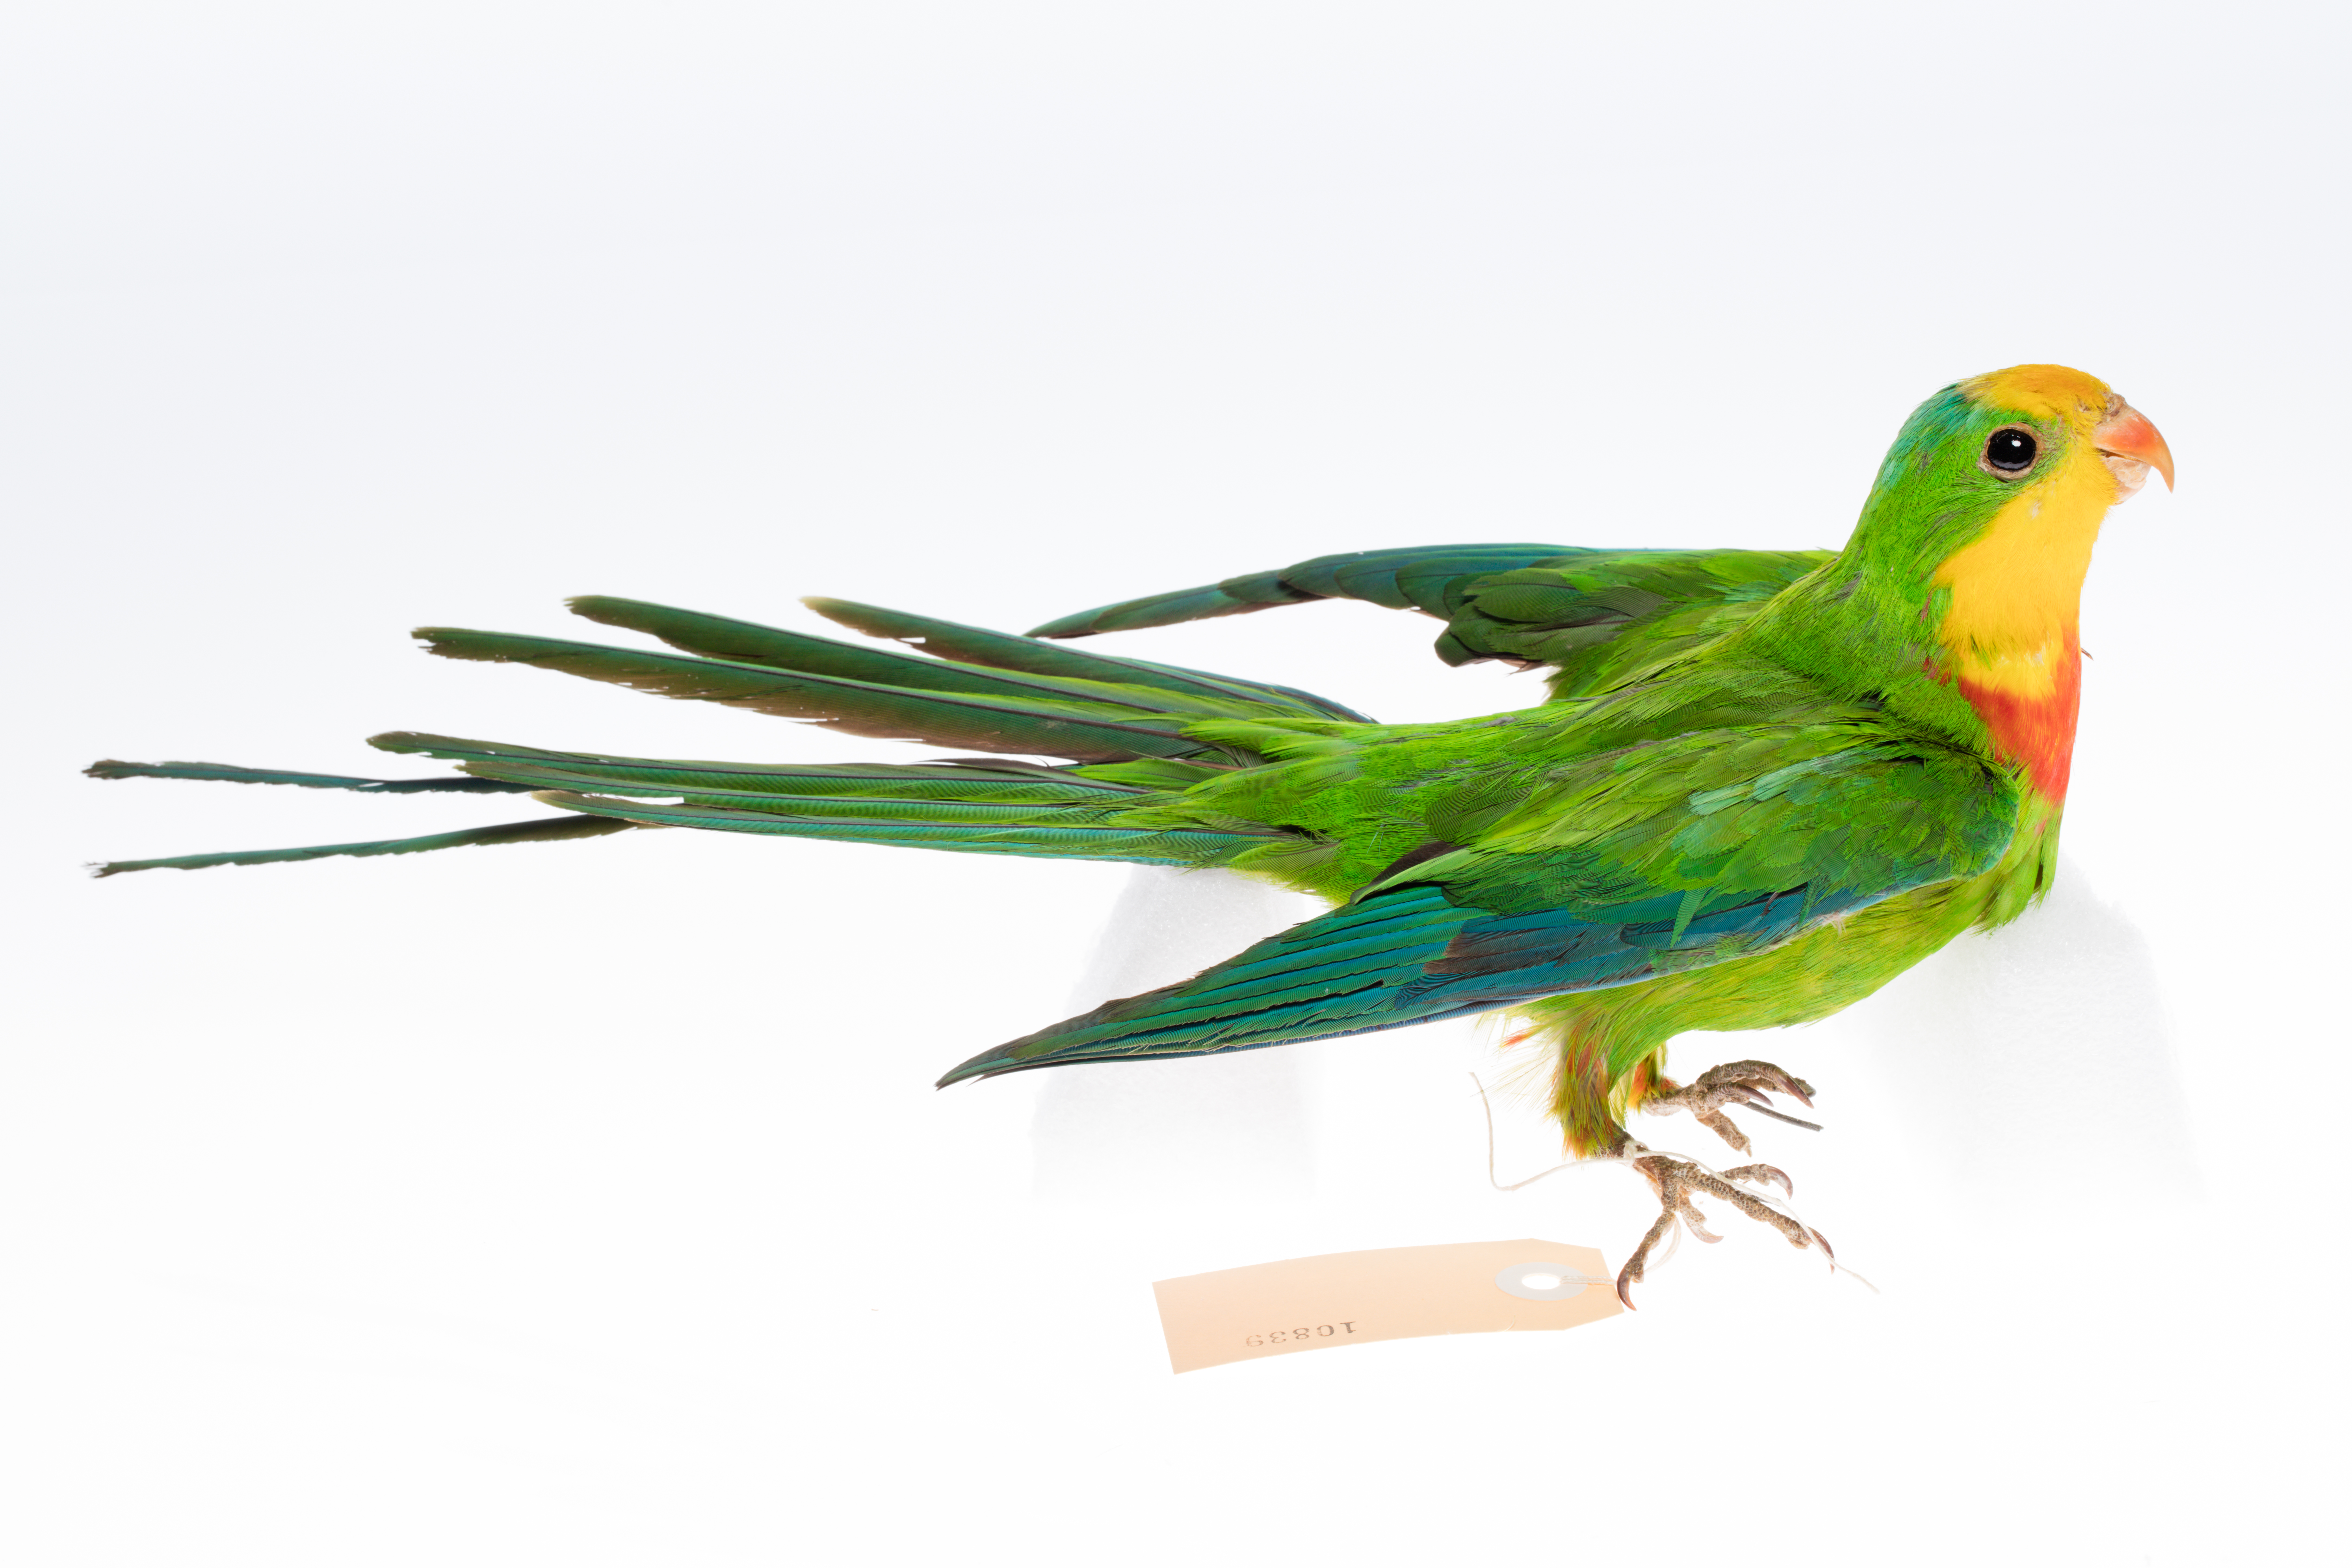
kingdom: Animalia
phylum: Chordata
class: Aves
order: Psittaciformes
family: Psittacidae
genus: Polytelis
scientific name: Polytelis swainsonii
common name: Superb parrot
